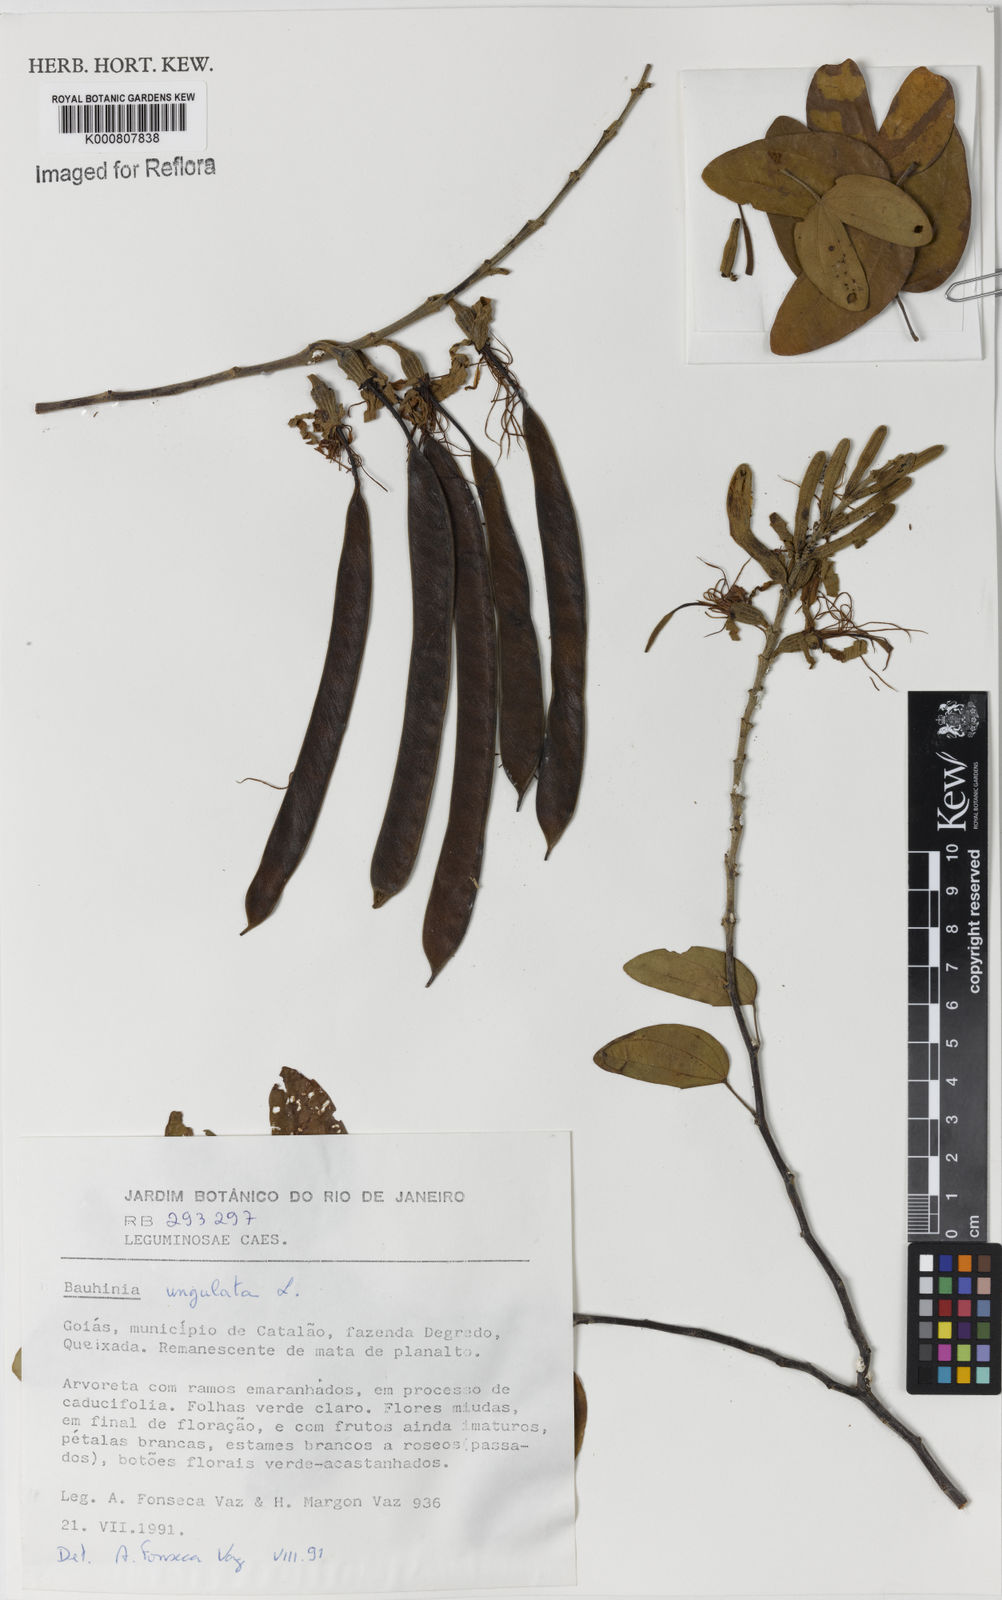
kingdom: Plantae
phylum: Tracheophyta
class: Magnoliopsida
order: Fabales
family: Fabaceae
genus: Bauhinia
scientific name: Bauhinia ungulata
